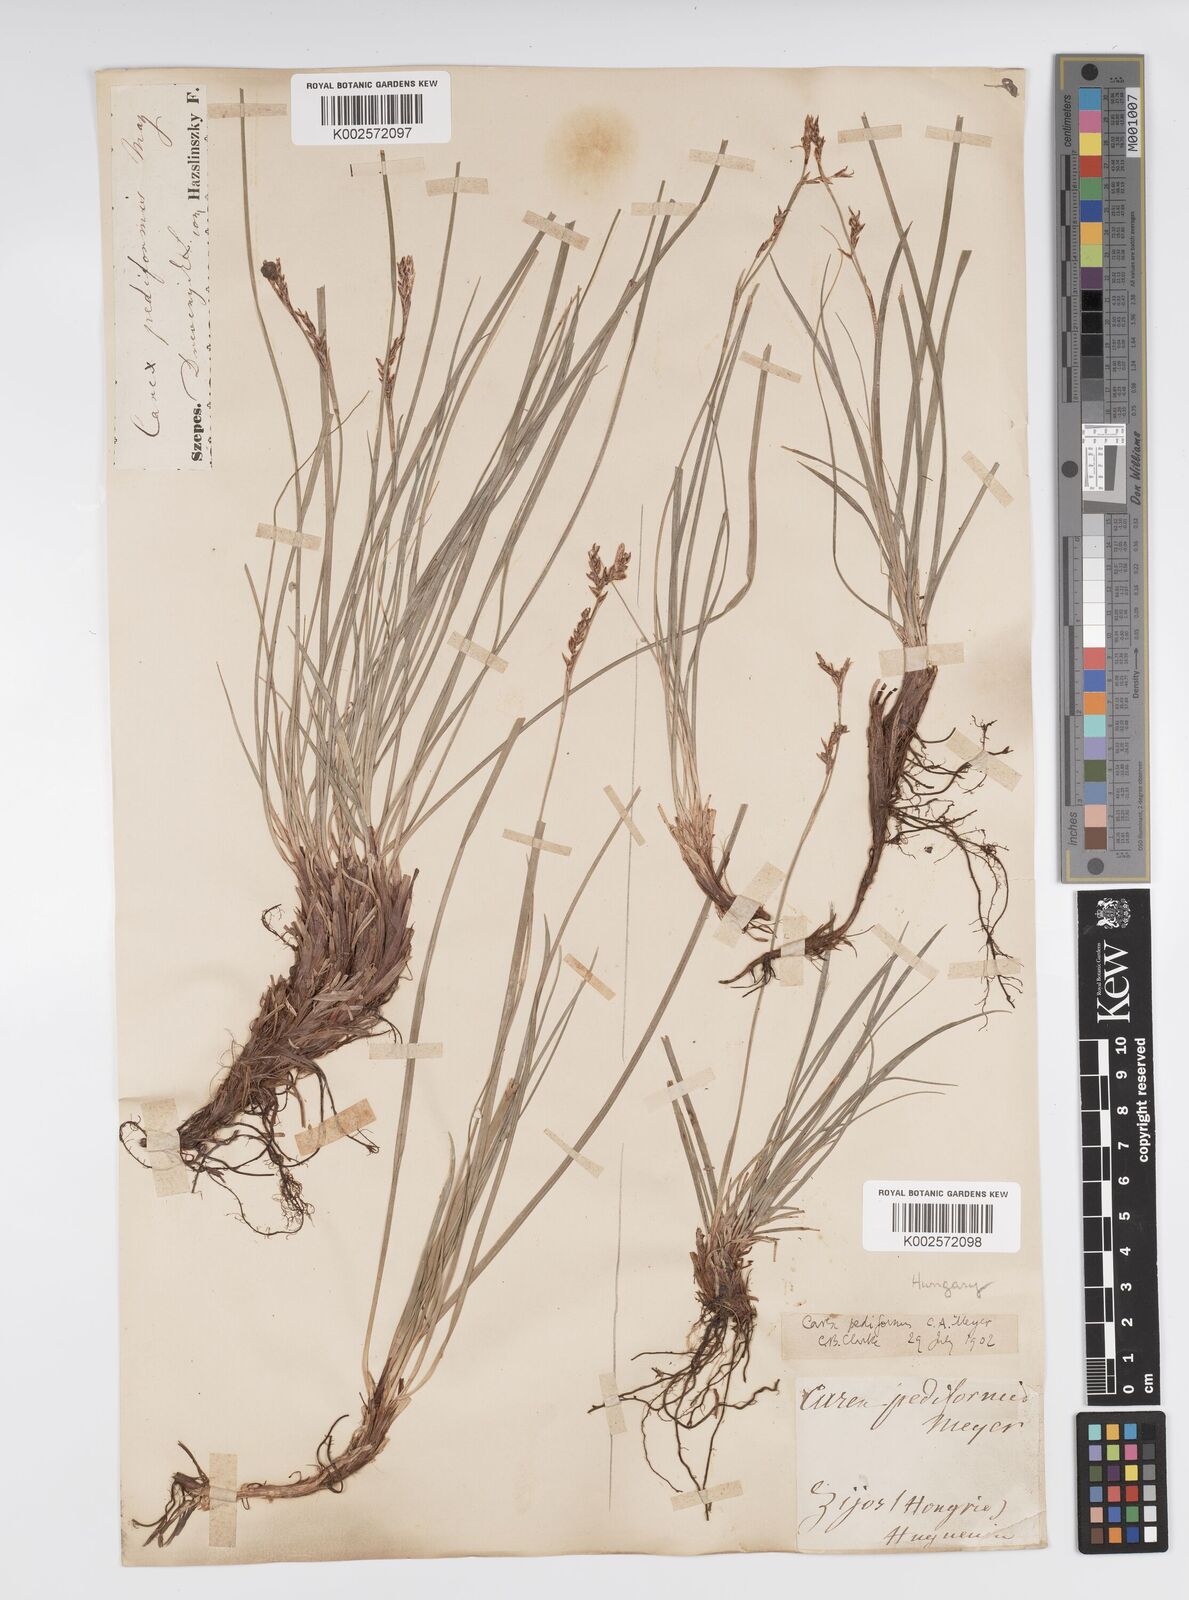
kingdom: Plantae
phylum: Tracheophyta
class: Liliopsida
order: Poales
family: Cyperaceae
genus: Carex
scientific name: Carex pediformis
